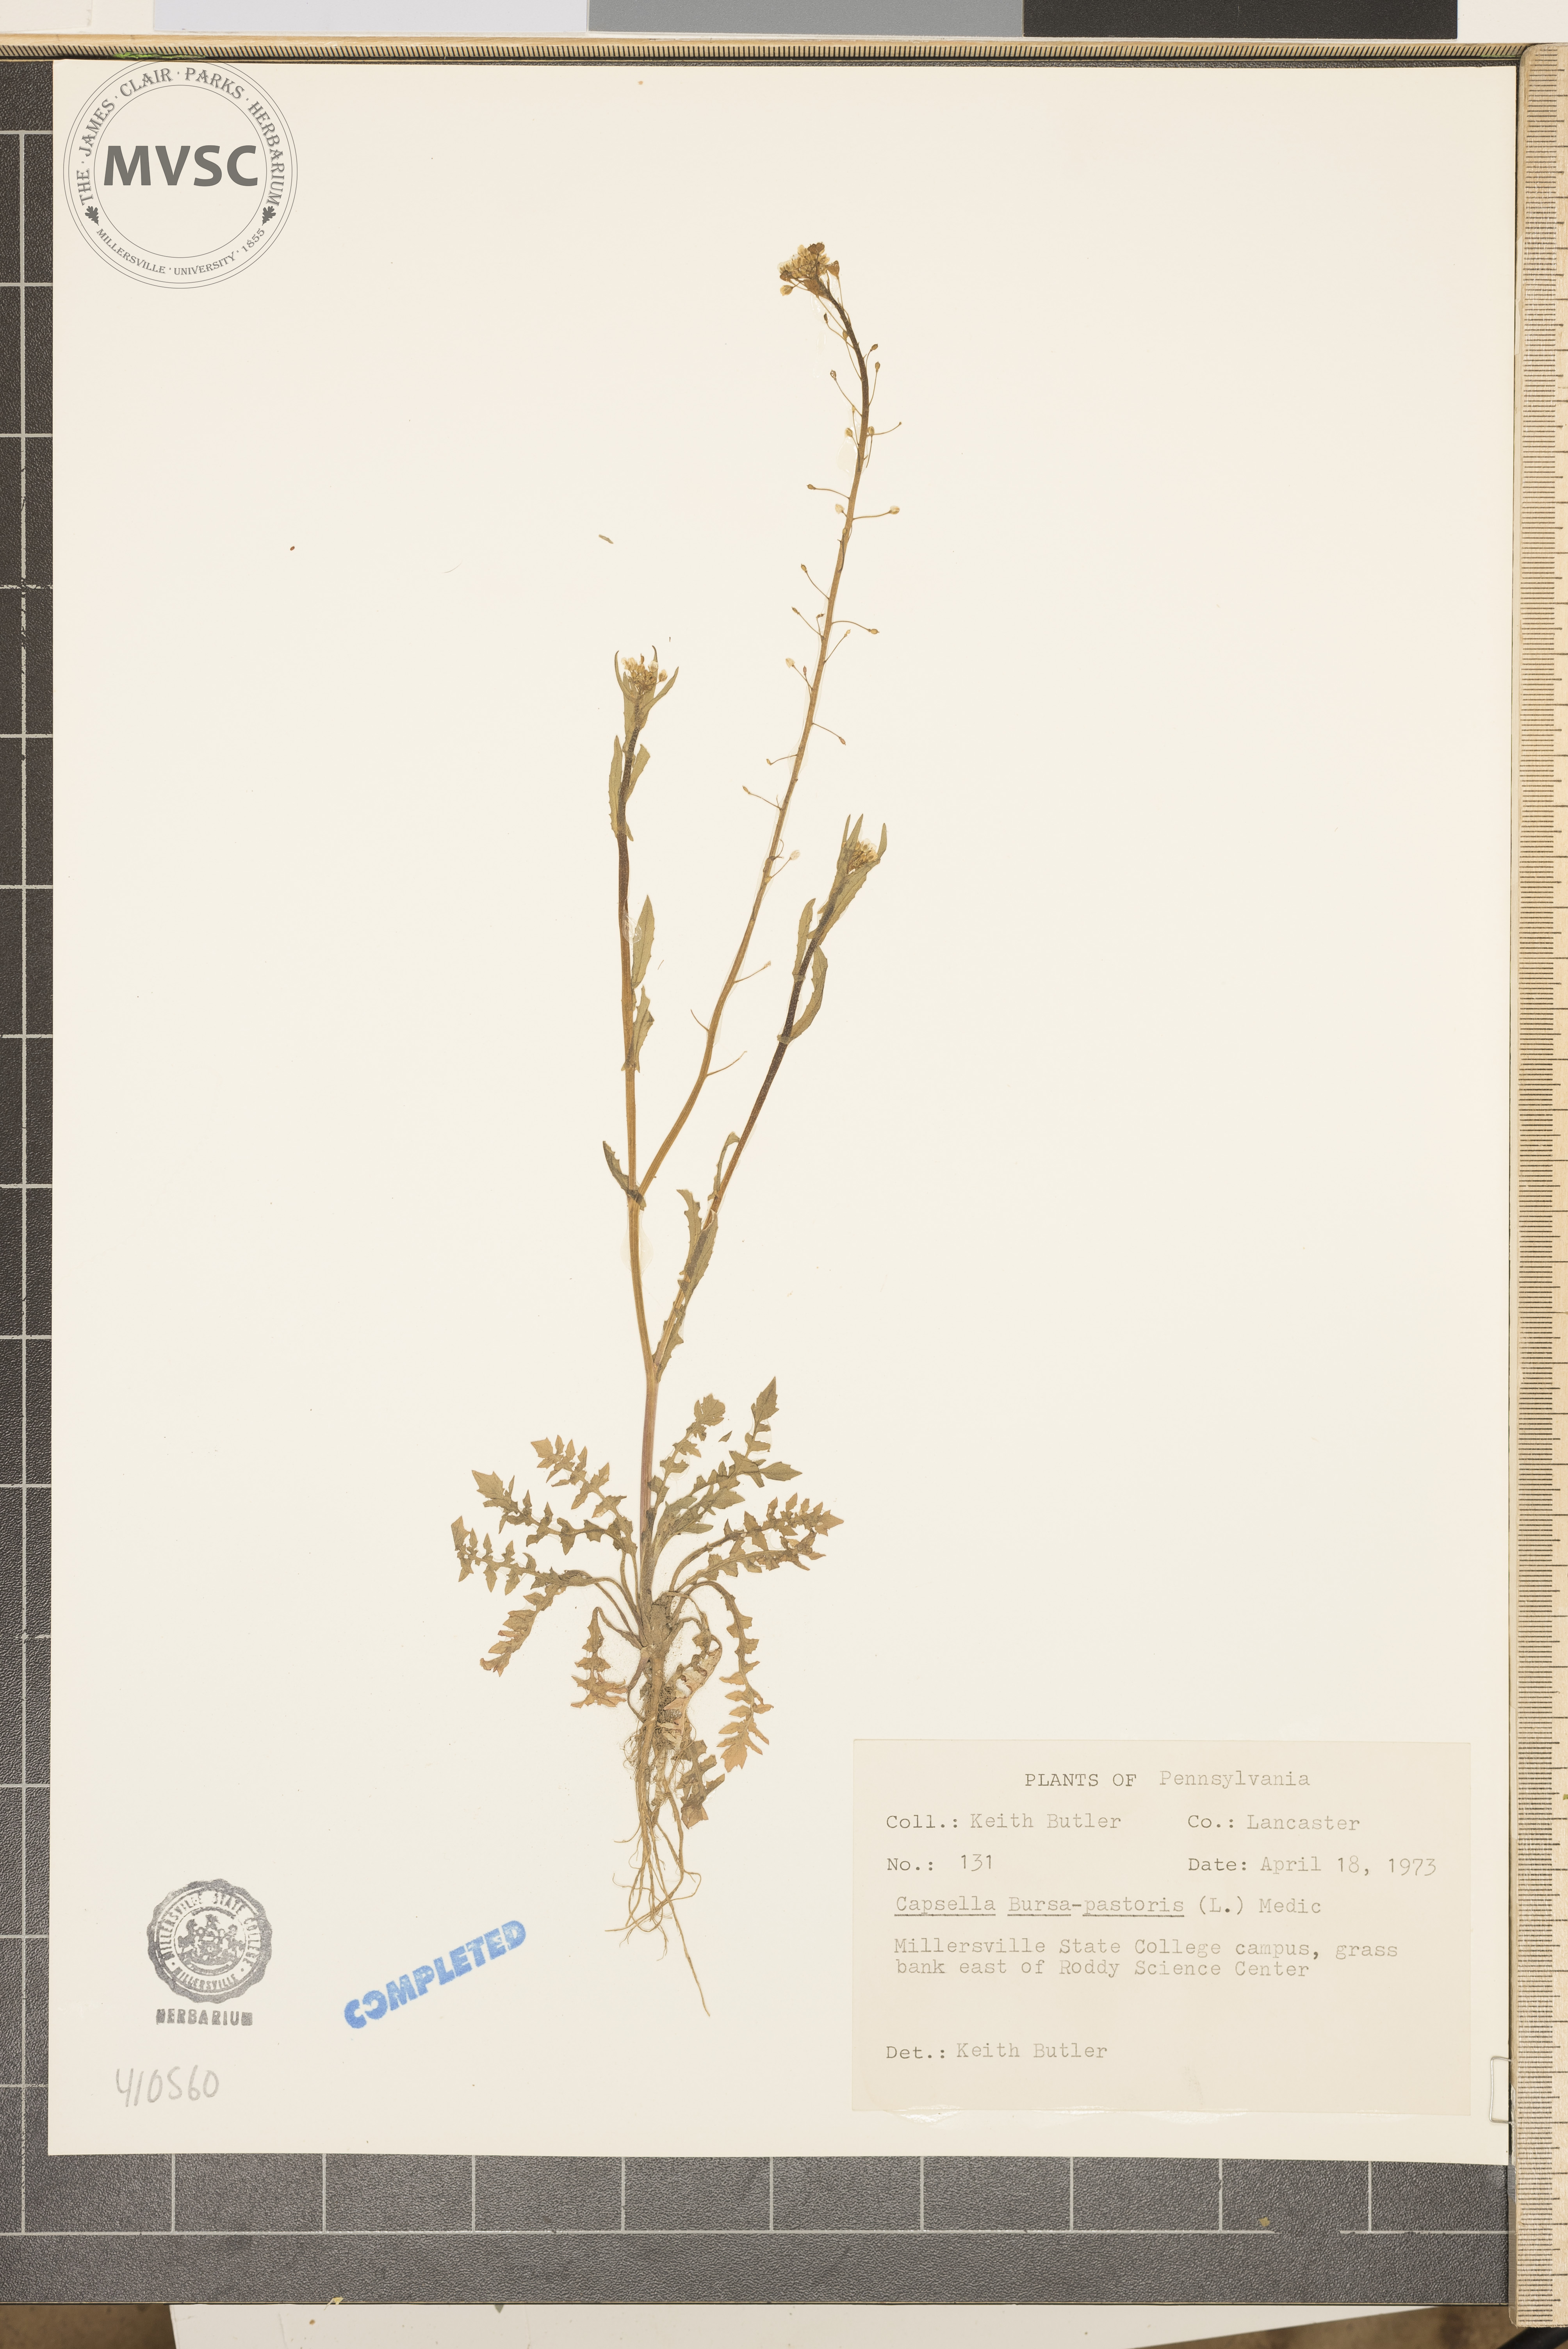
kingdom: Plantae
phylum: Tracheophyta
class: Magnoliopsida
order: Brassicales
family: Brassicaceae
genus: Capsella
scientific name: Capsella bursa-pastoris
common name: Shepherd's purse
